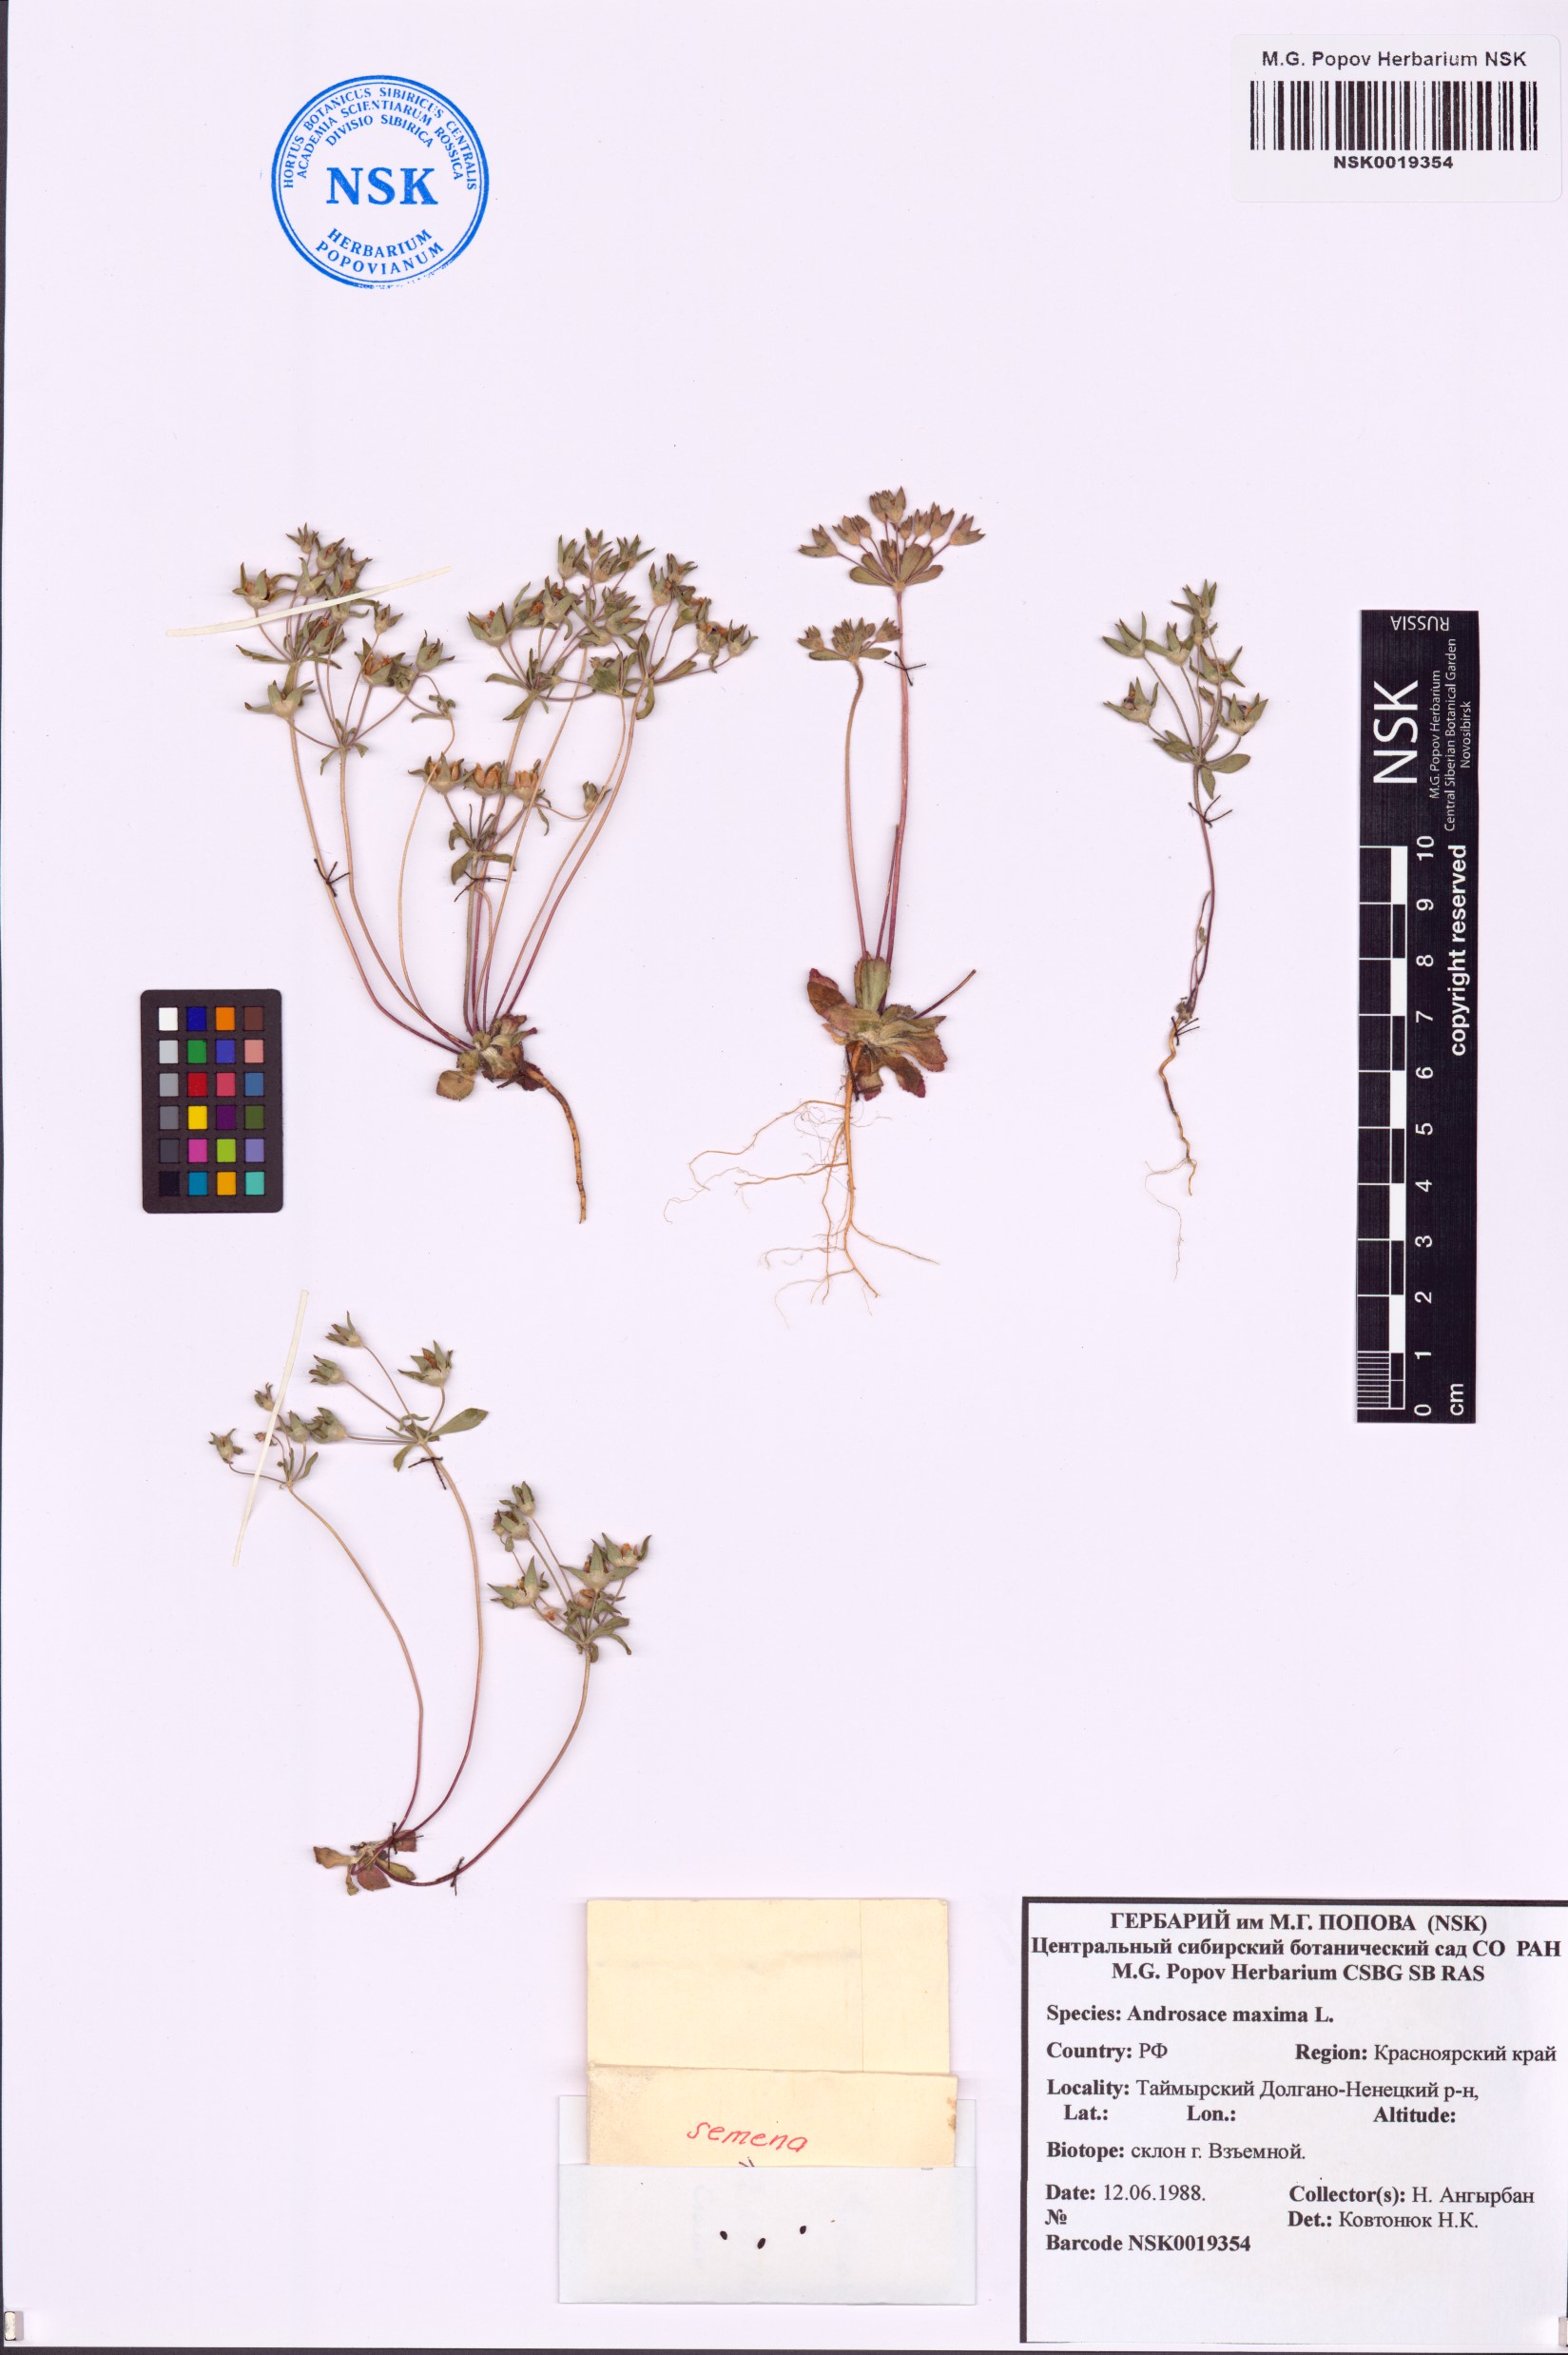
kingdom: Plantae
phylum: Tracheophyta
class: Magnoliopsida
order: Ericales
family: Primulaceae
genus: Androsace
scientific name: Androsace maxima
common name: Annual androsace
